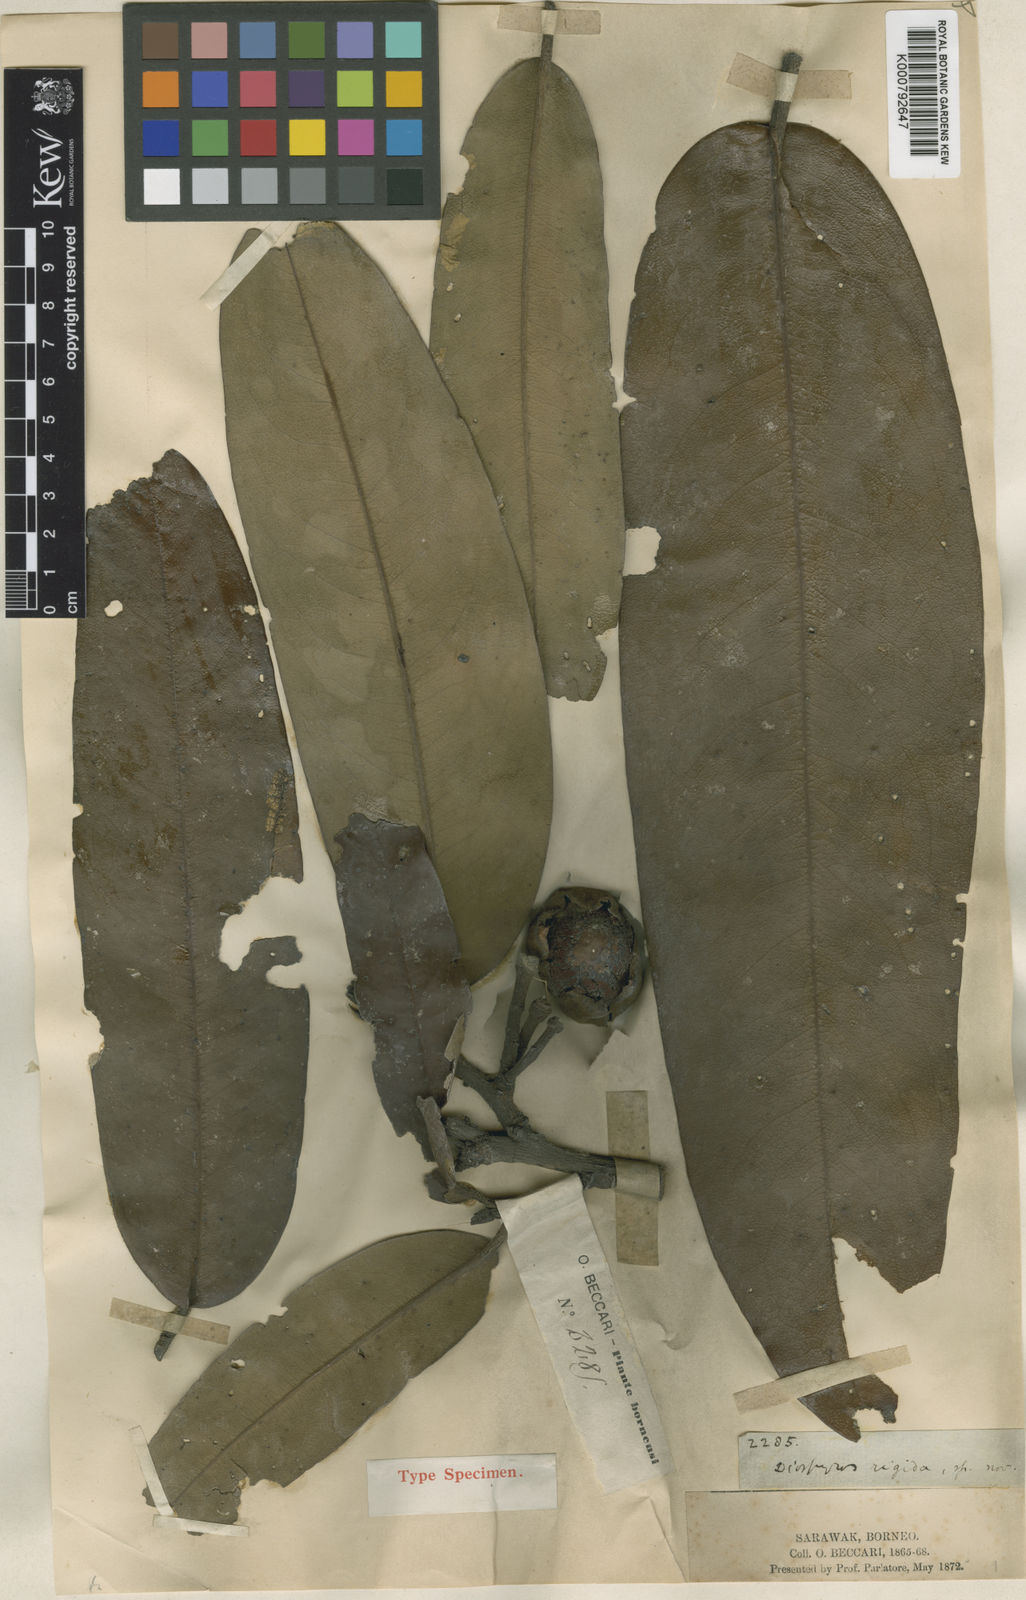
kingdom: Plantae
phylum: Tracheophyta
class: Magnoliopsida
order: Ericales
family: Ebenaceae
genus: Diospyros
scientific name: Diospyros rigida
